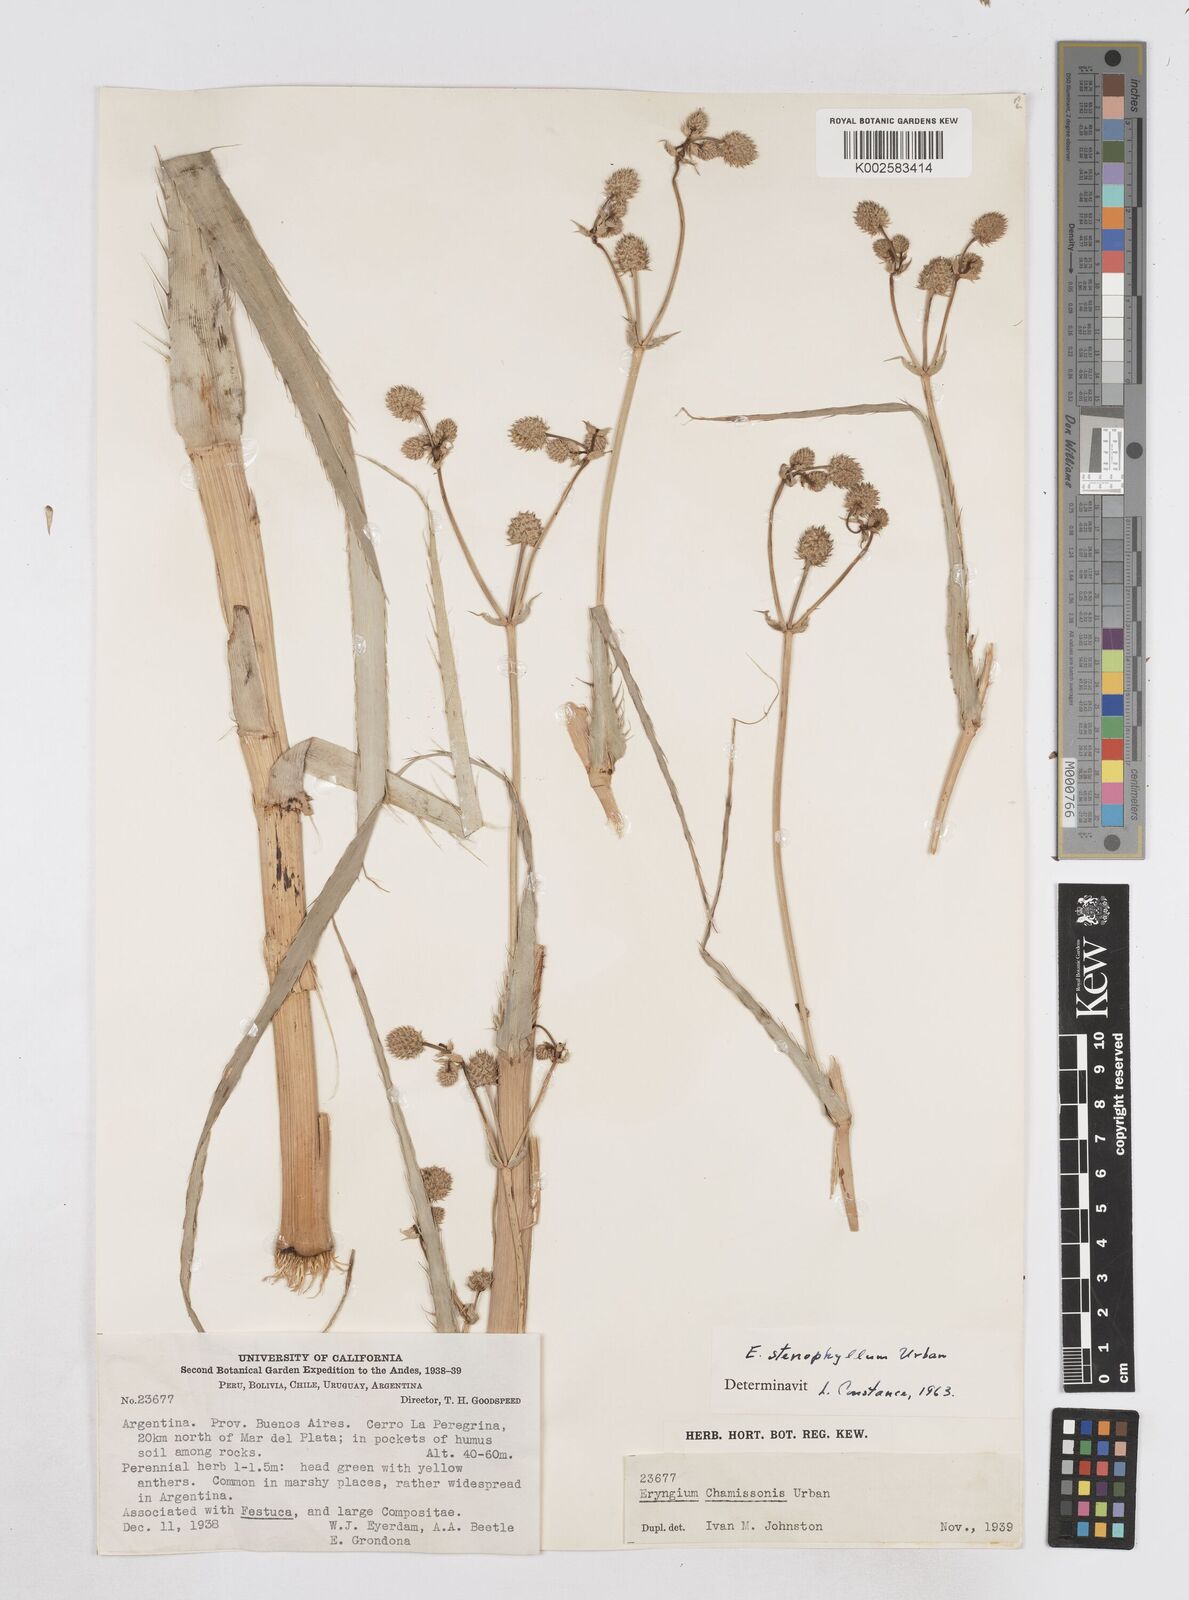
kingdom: Plantae
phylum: Tracheophyta
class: Magnoliopsida
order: Apiales
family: Apiaceae
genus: Eryngium
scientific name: Eryngium stenophyllum
